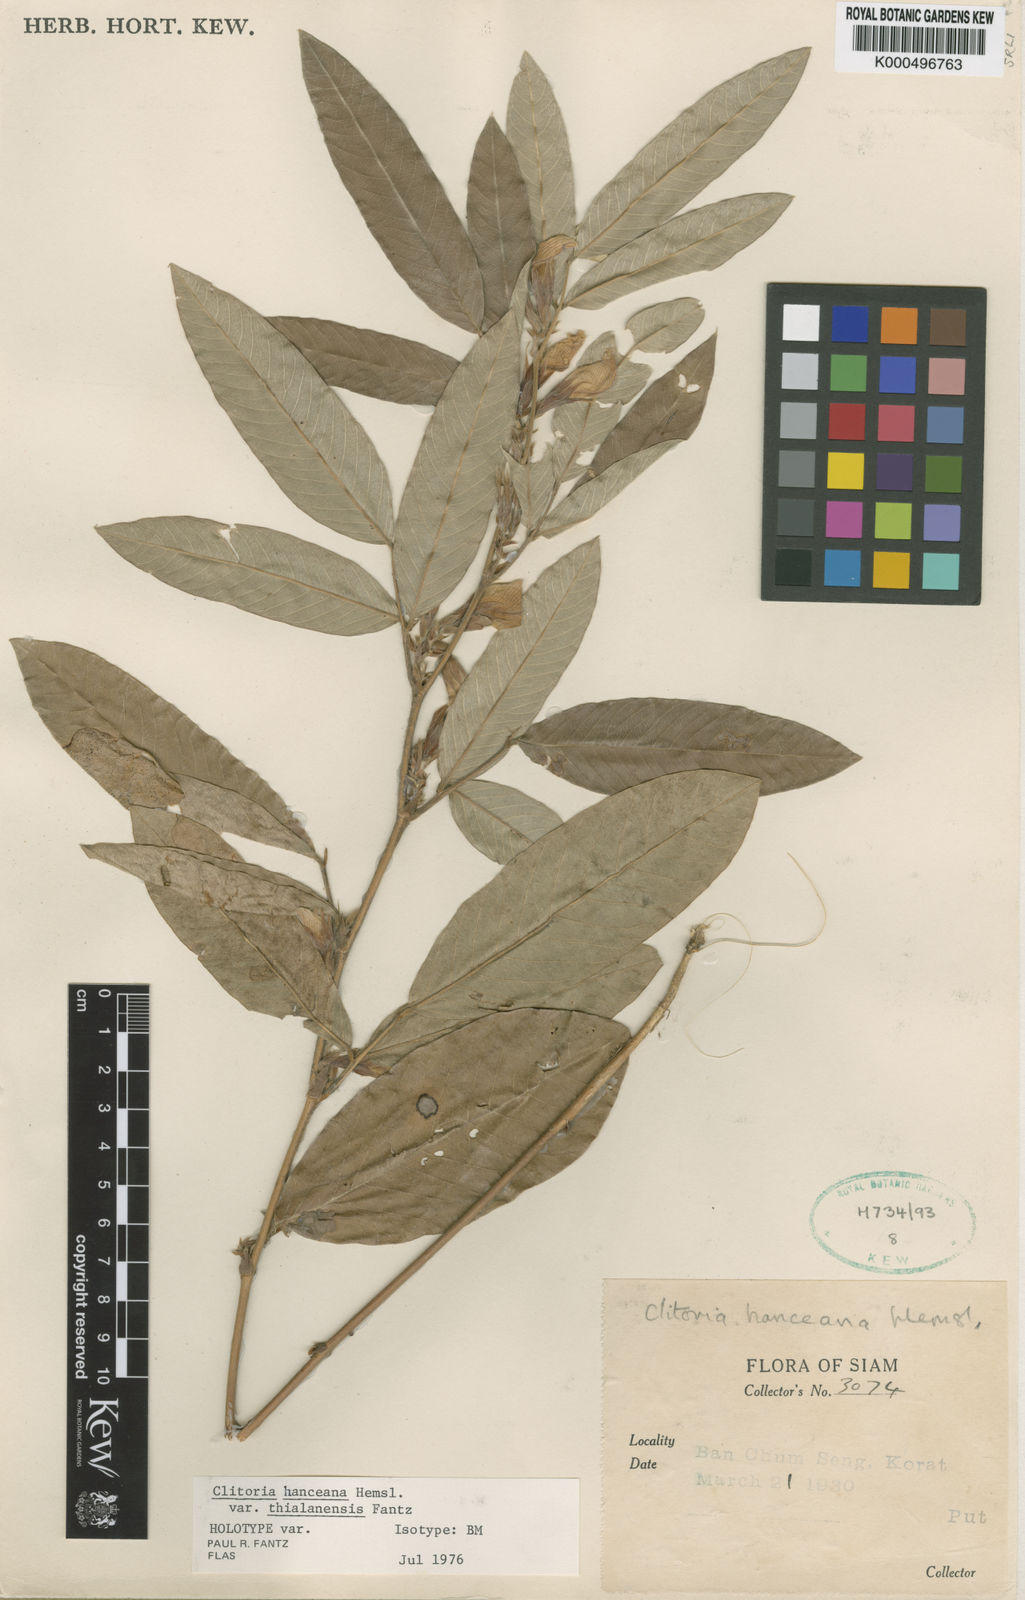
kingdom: Plantae
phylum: Tracheophyta
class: Magnoliopsida
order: Fabales
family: Fabaceae
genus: Clitoria
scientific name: Clitoria
